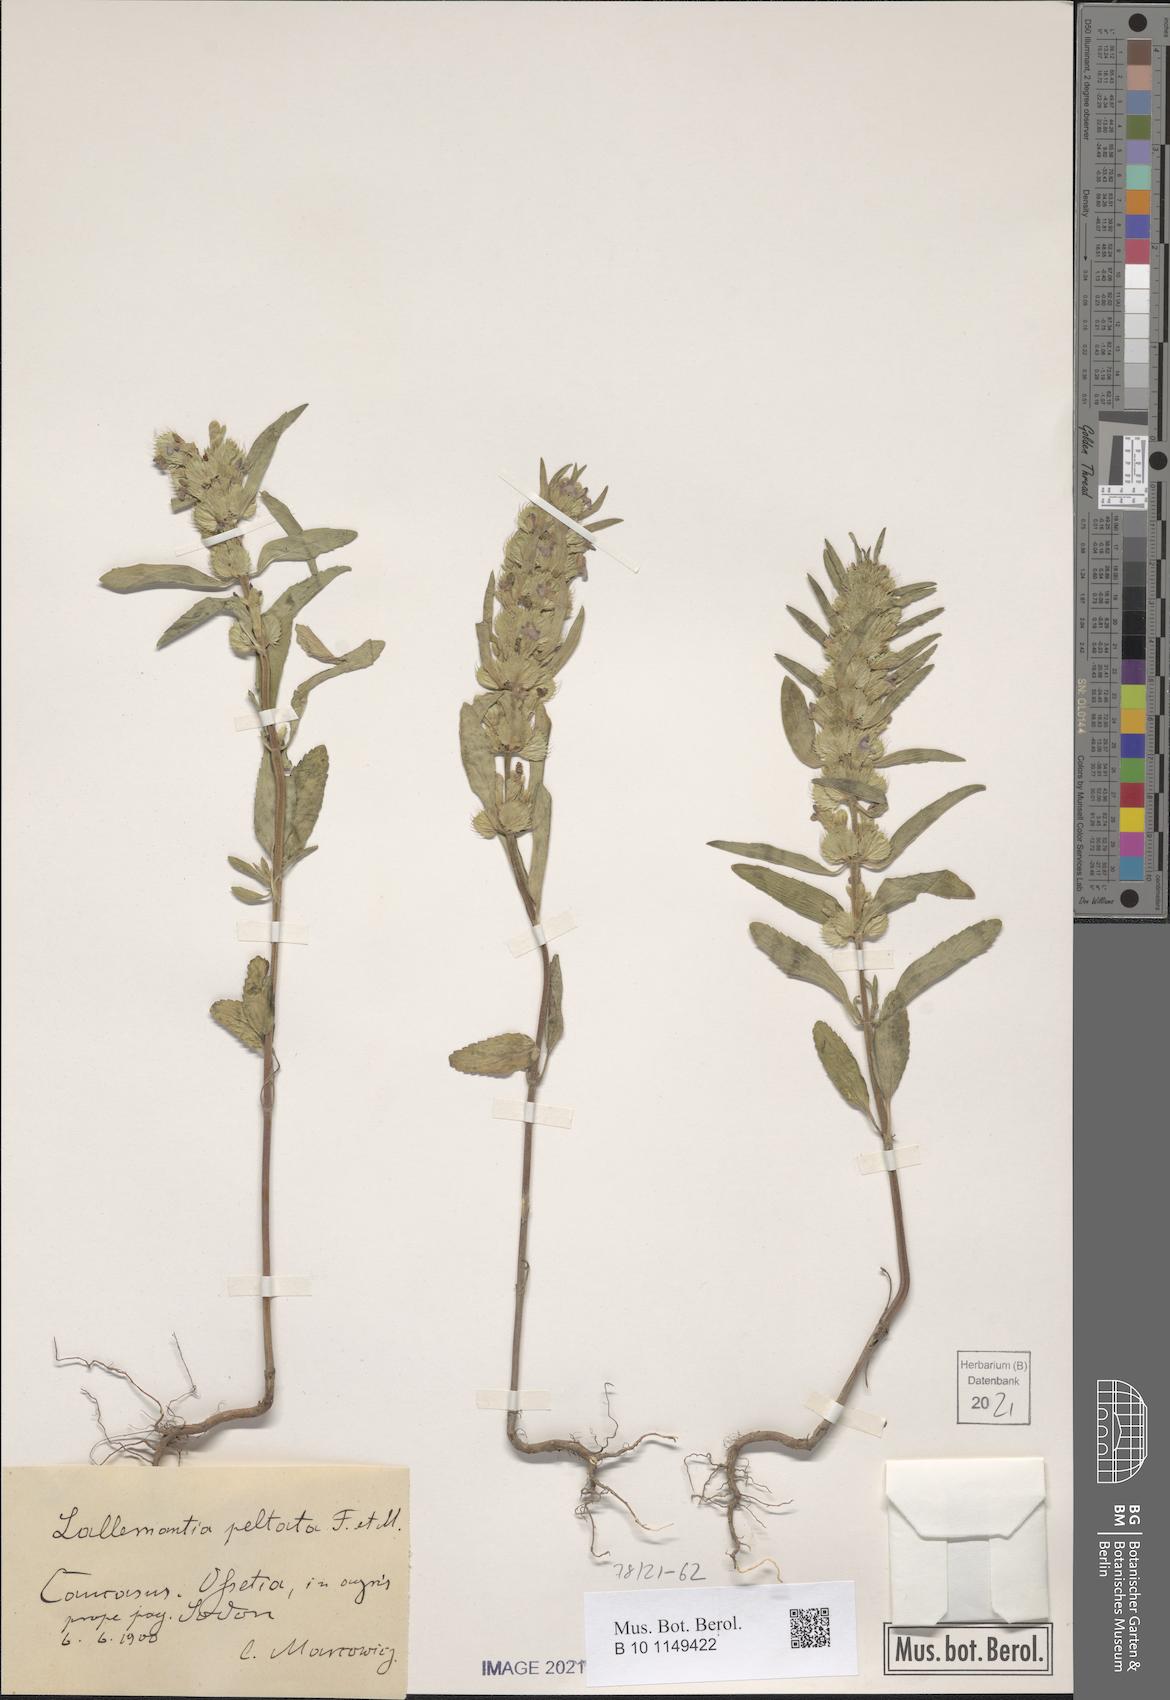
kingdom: Plantae
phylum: Tracheophyta
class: Magnoliopsida
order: Lamiales
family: Lamiaceae
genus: Lallemantia
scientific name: Lallemantia peltata
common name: Lion's heart
